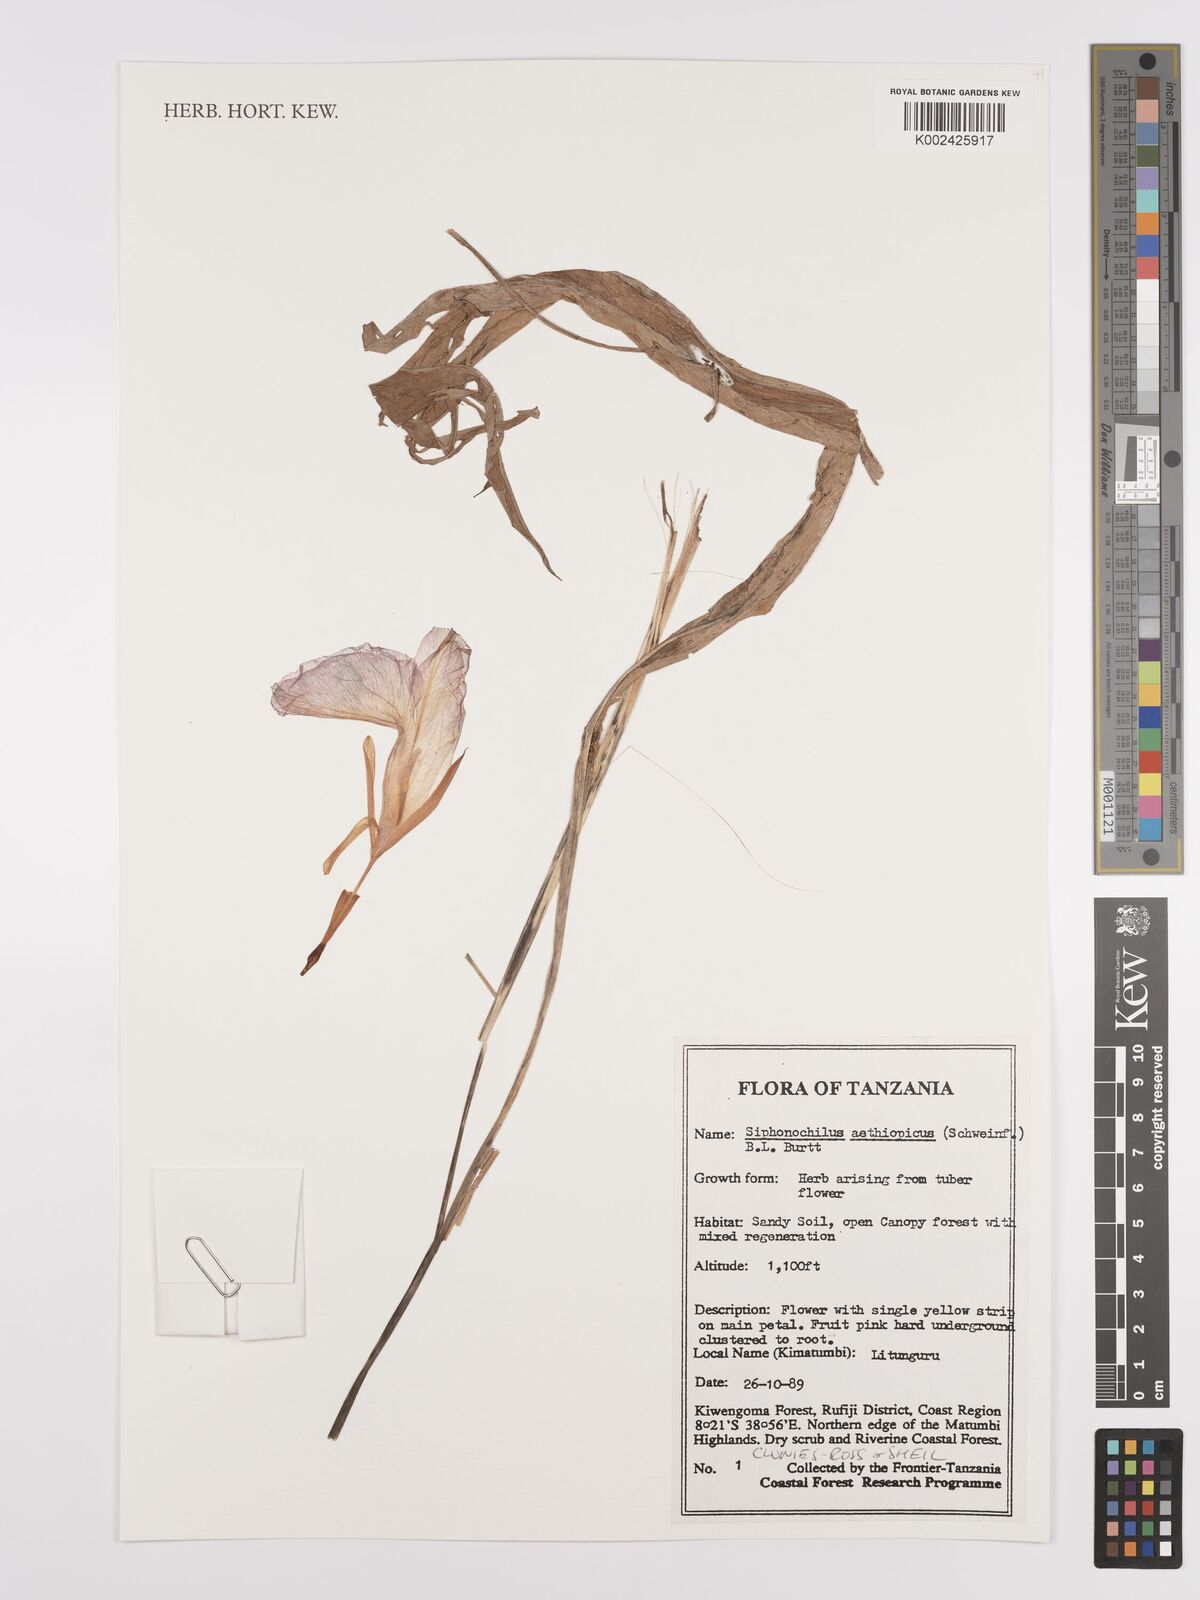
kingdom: Plantae
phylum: Tracheophyta
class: Liliopsida
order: Zingiberales
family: Zingiberaceae
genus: Siphonochilus
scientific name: Siphonochilus aethiopicus
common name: African-ginger
